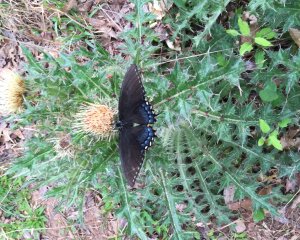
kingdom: Animalia
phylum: Arthropoda
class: Insecta
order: Lepidoptera
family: Papilionidae
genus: Pterourus
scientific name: Pterourus glaucus
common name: Eastern Tiger Swallowtail
